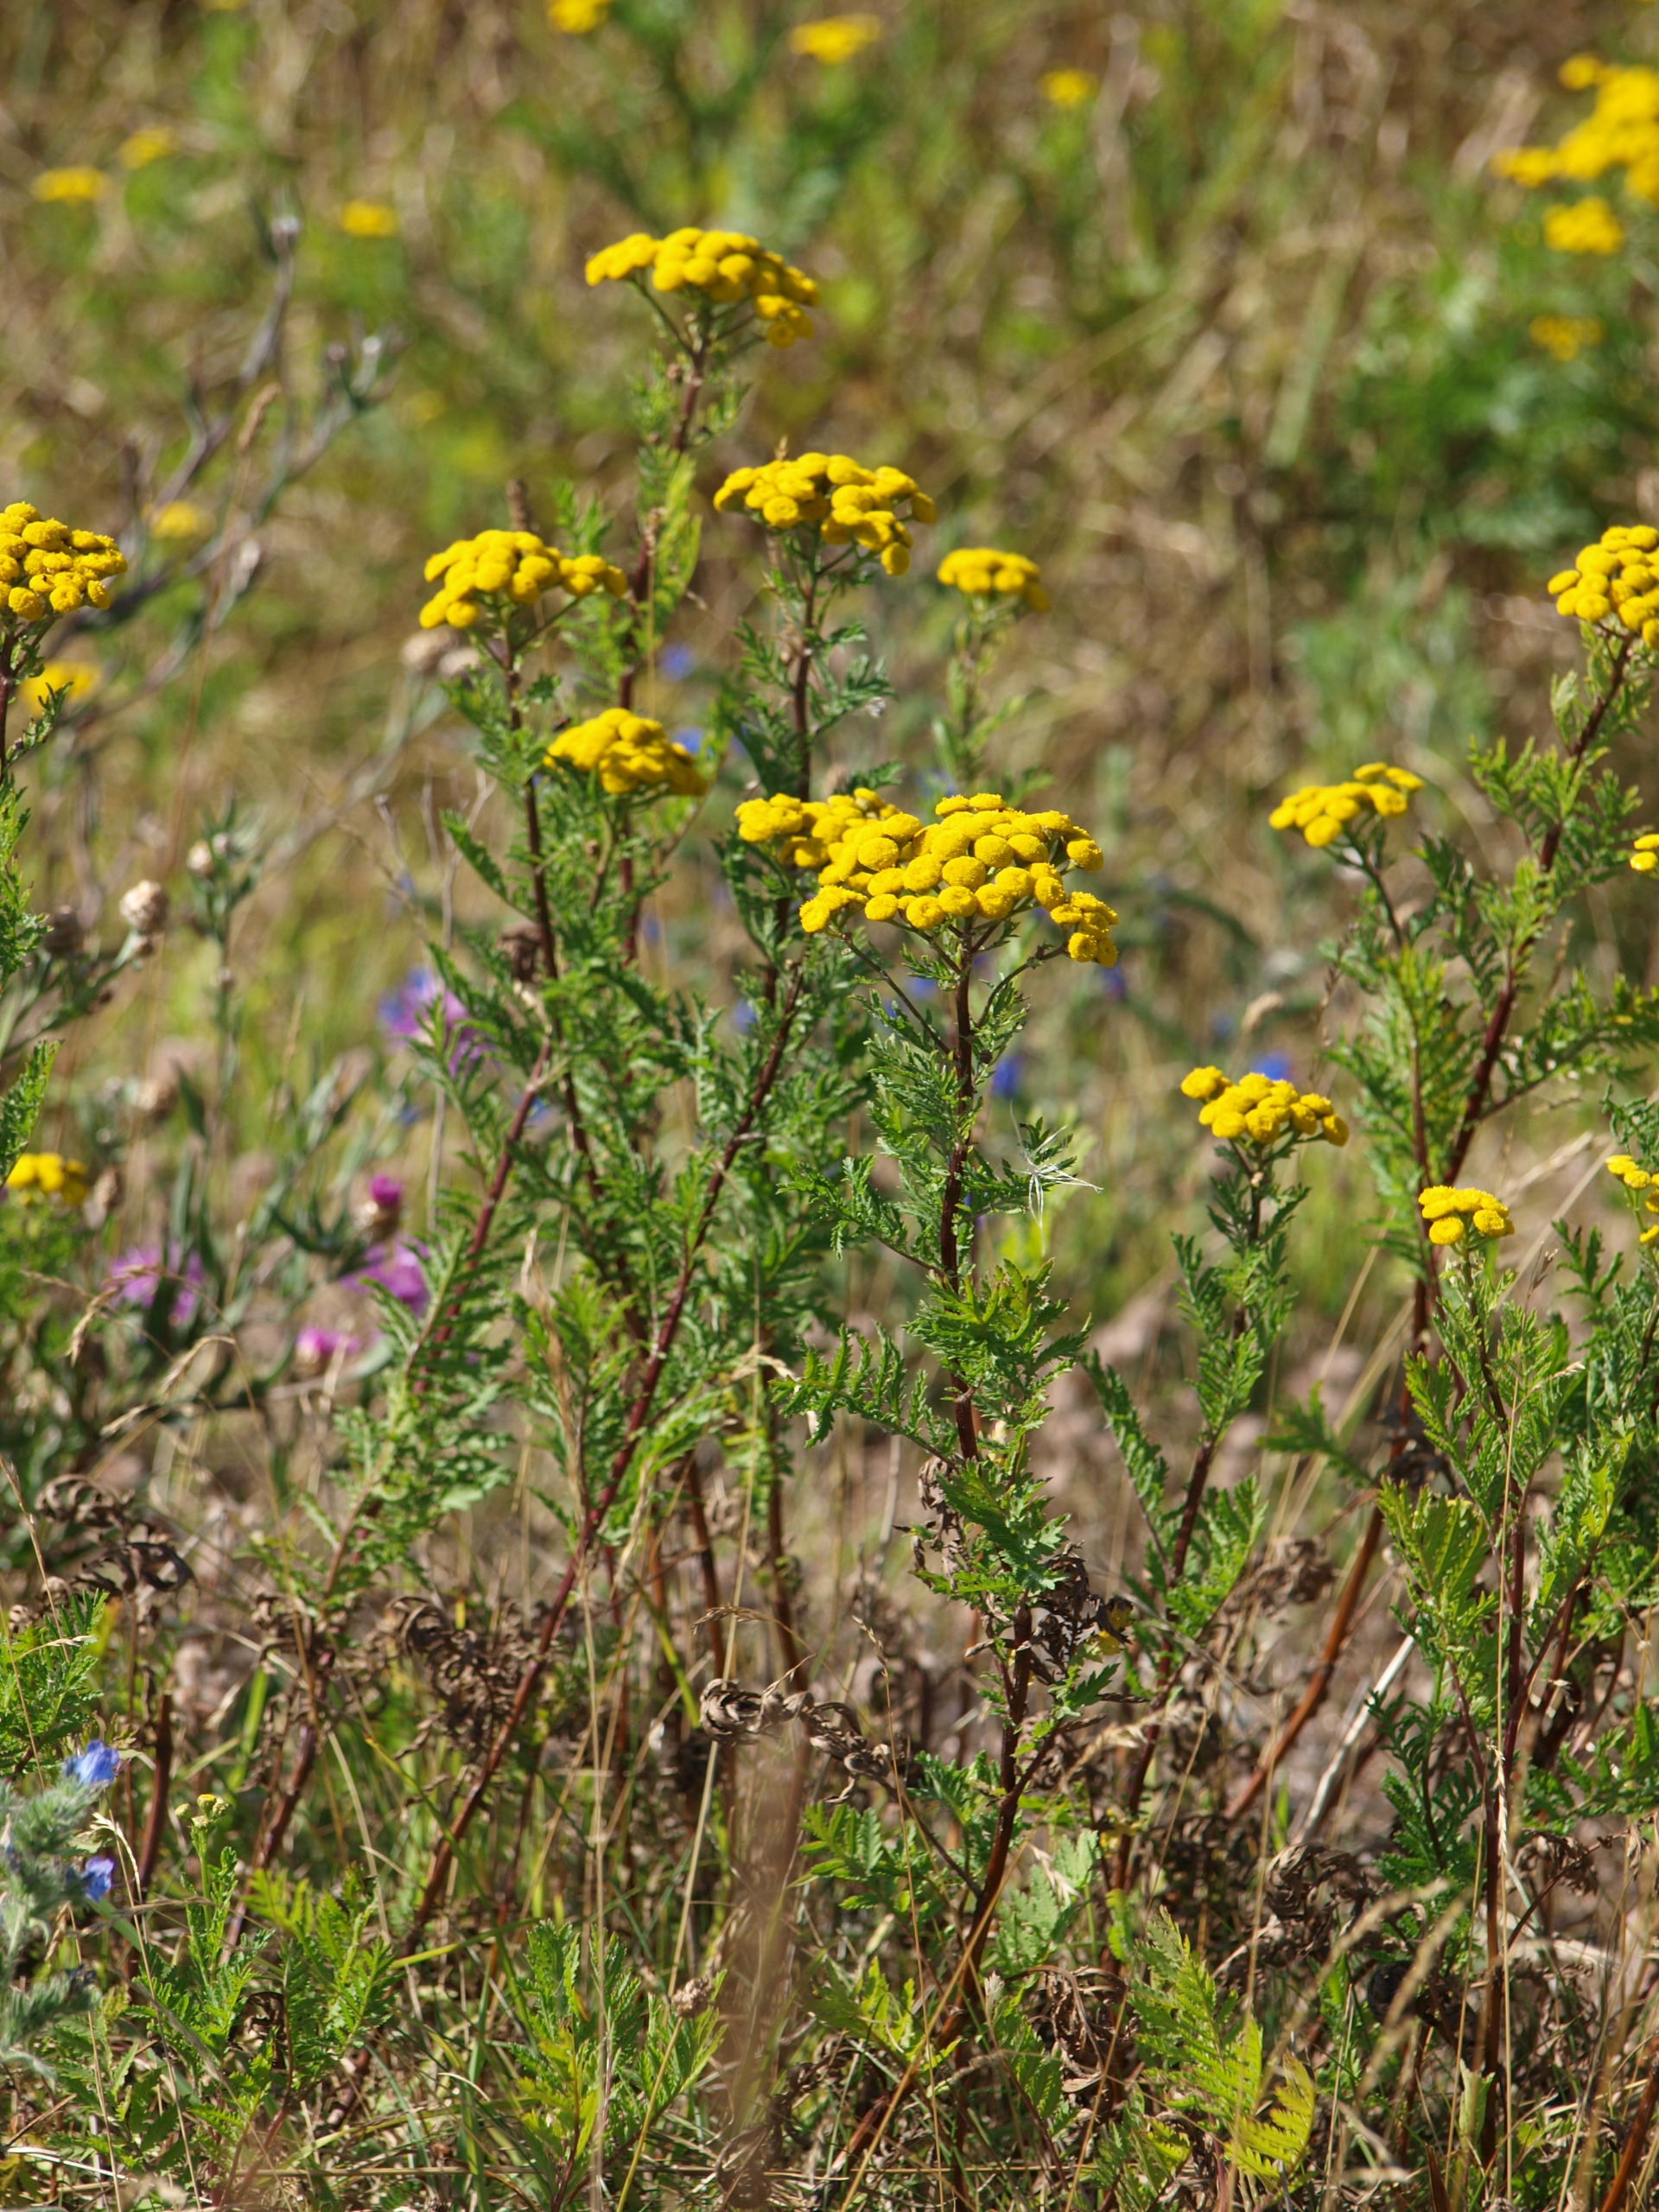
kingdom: Plantae
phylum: Tracheophyta
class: Magnoliopsida
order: Asterales
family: Asteraceae
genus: Tanacetum
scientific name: Tanacetum vulgare
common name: Rejnfan
